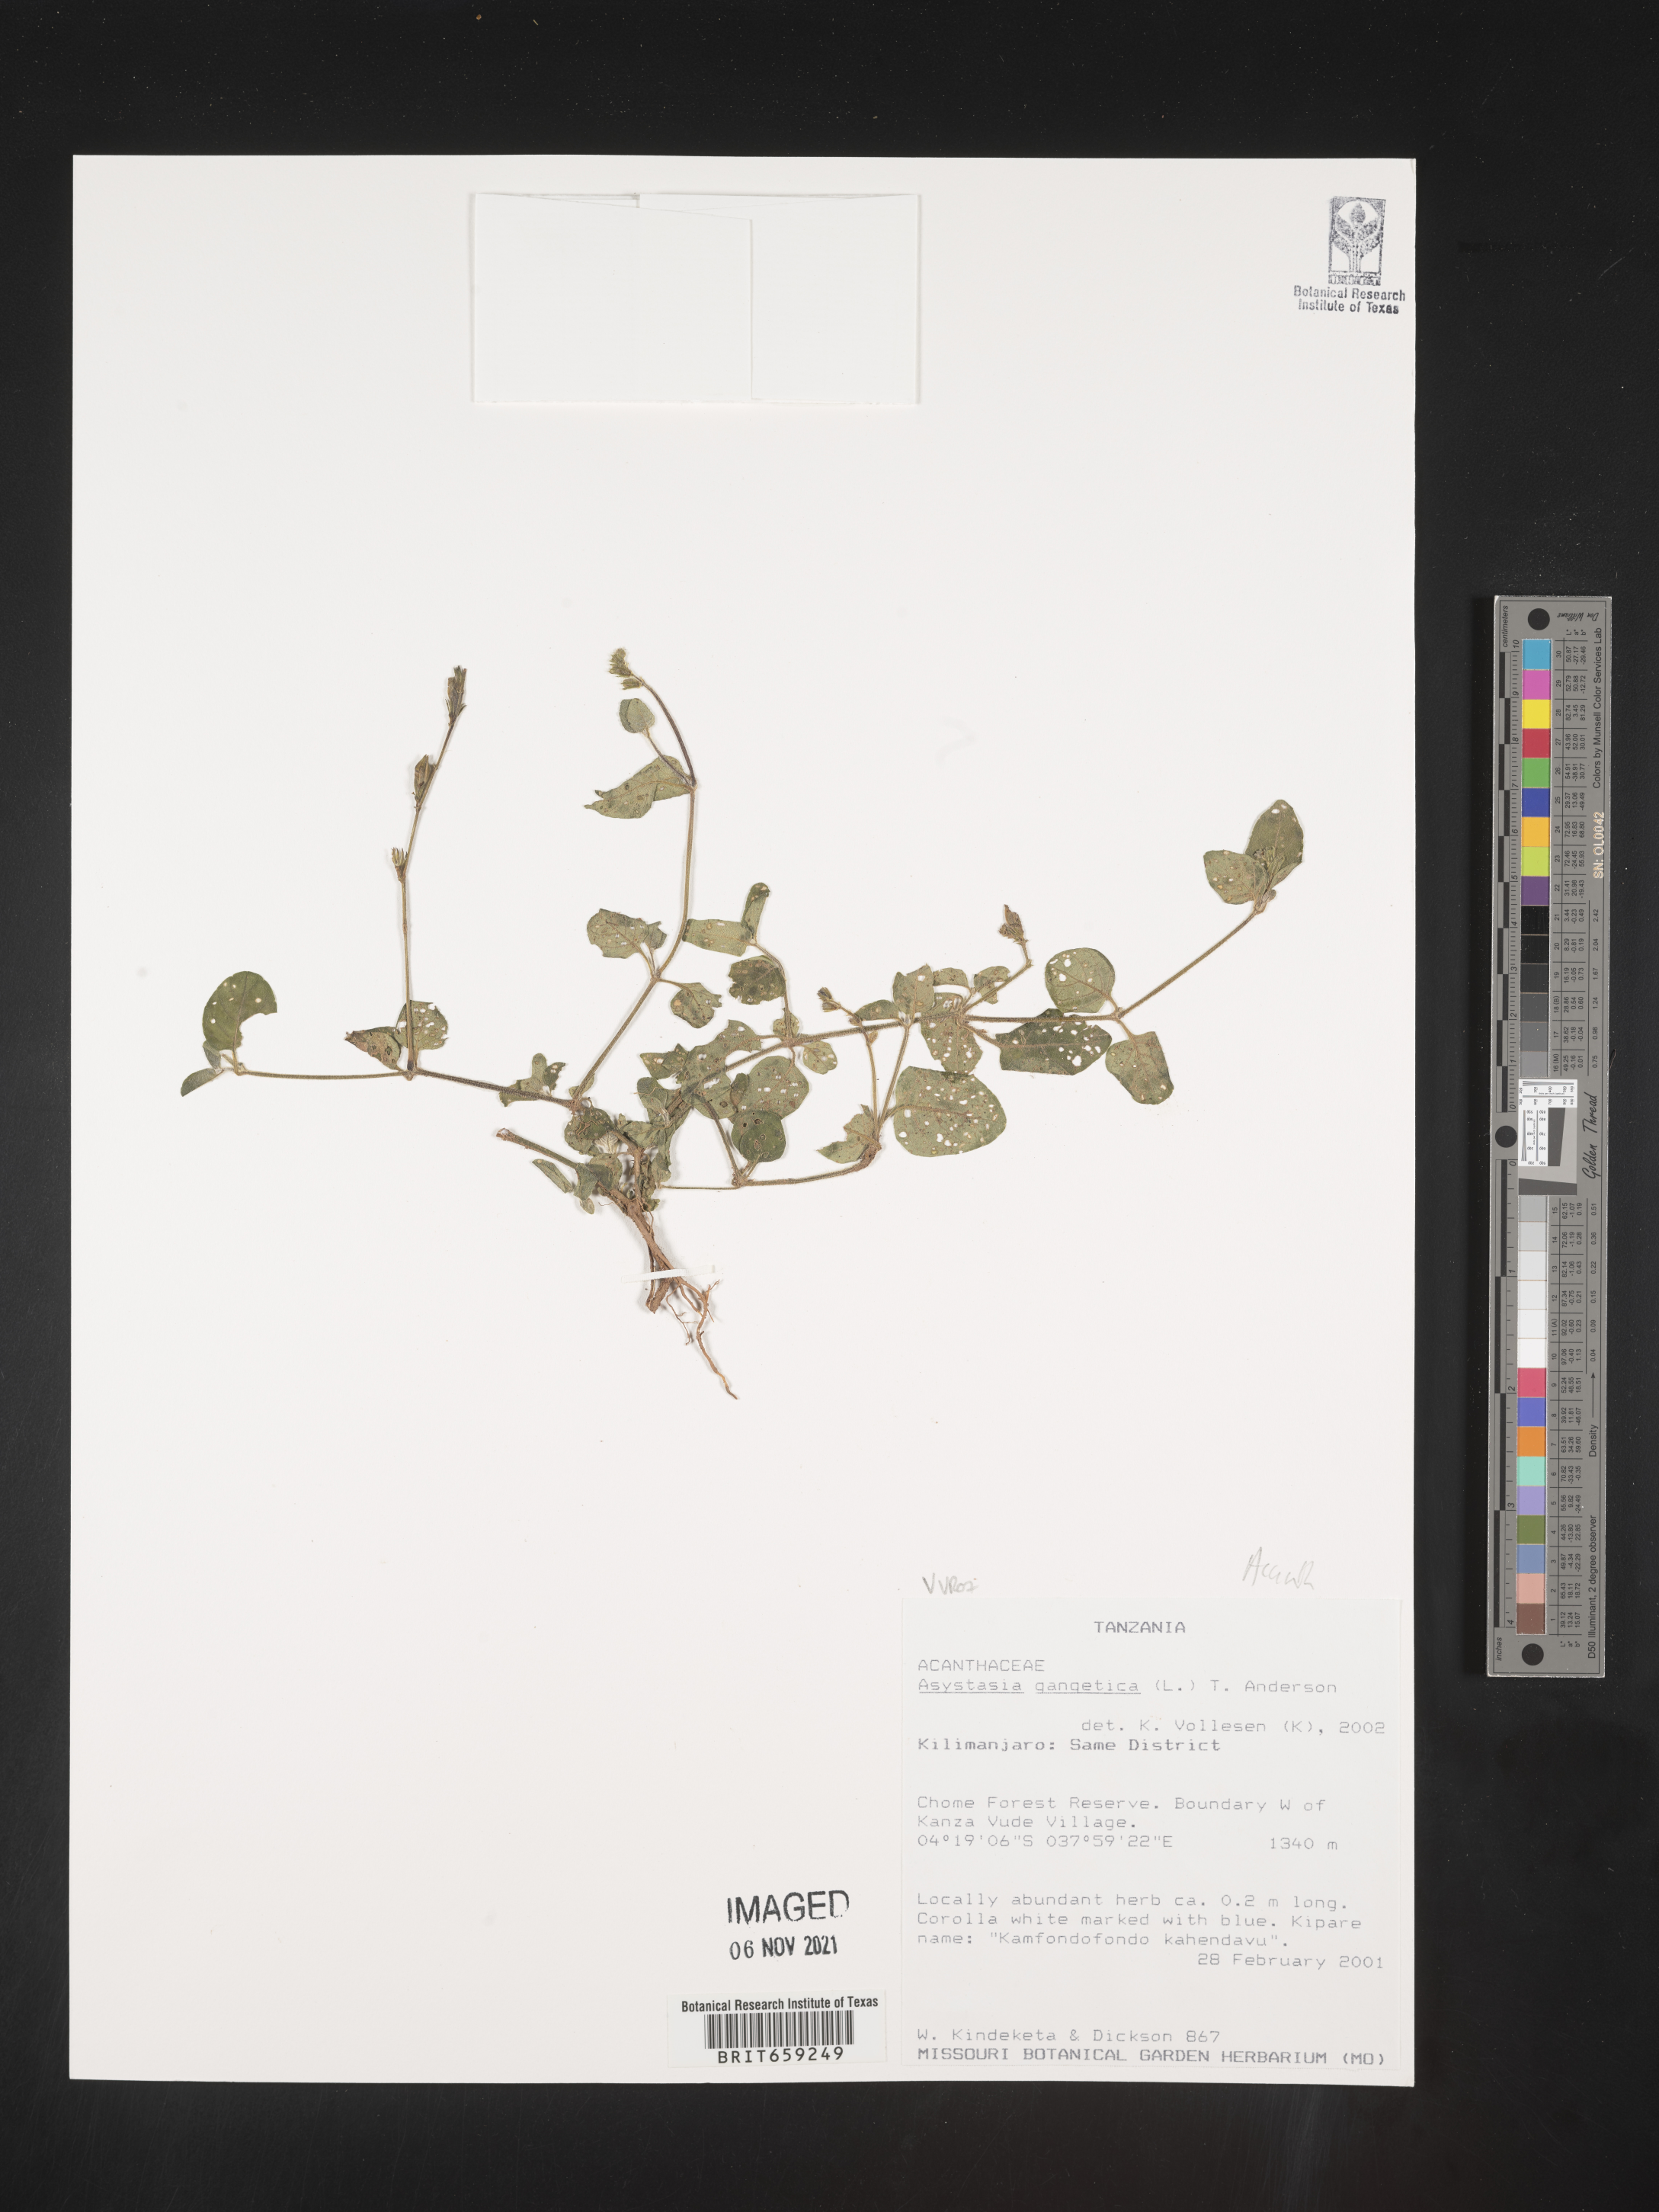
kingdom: Plantae
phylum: Tracheophyta
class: Magnoliopsida
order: Lamiales
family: Acanthaceae
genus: Asystasia
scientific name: Asystasia gangetica
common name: Chinese violet
